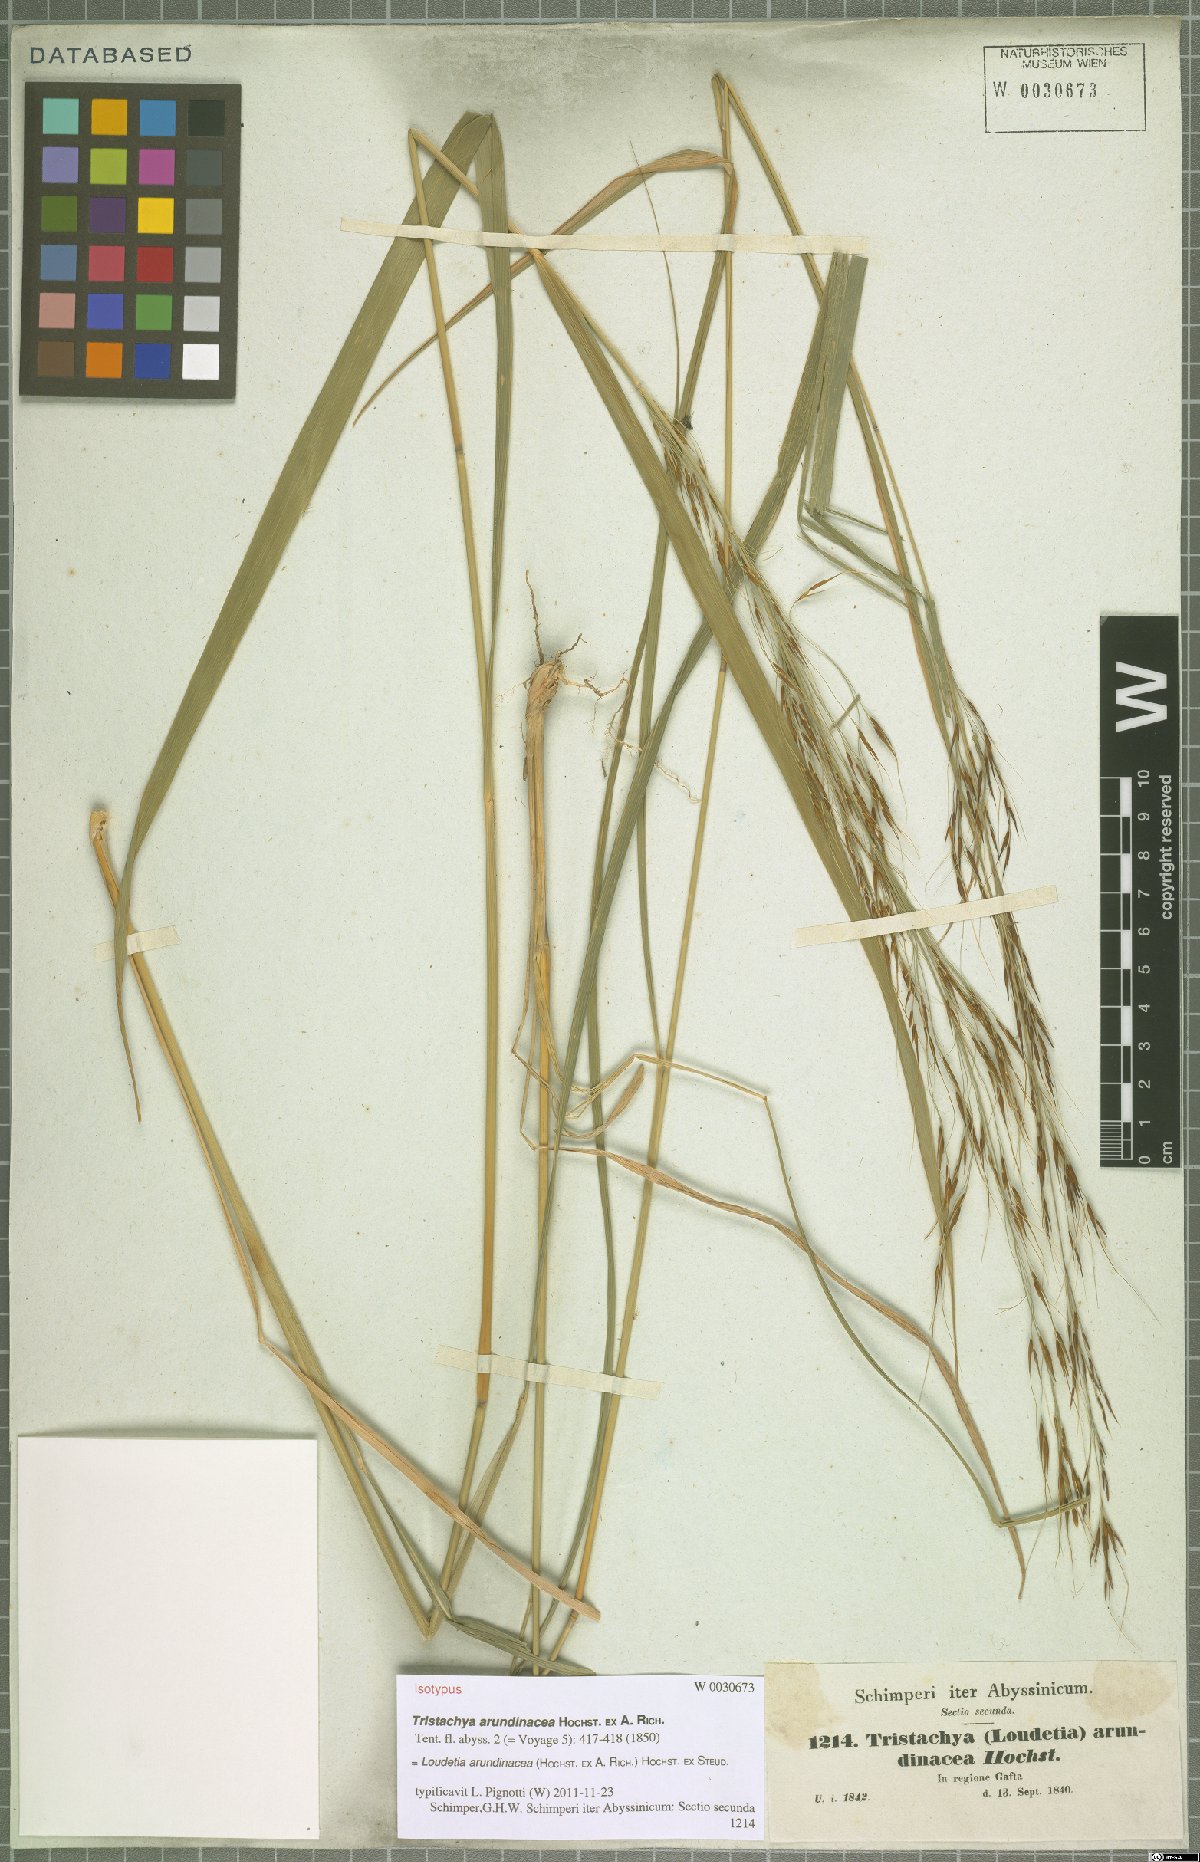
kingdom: Plantae
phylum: Tracheophyta
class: Liliopsida
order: Poales
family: Poaceae
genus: Loudetia
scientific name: Loudetia arundinacea
